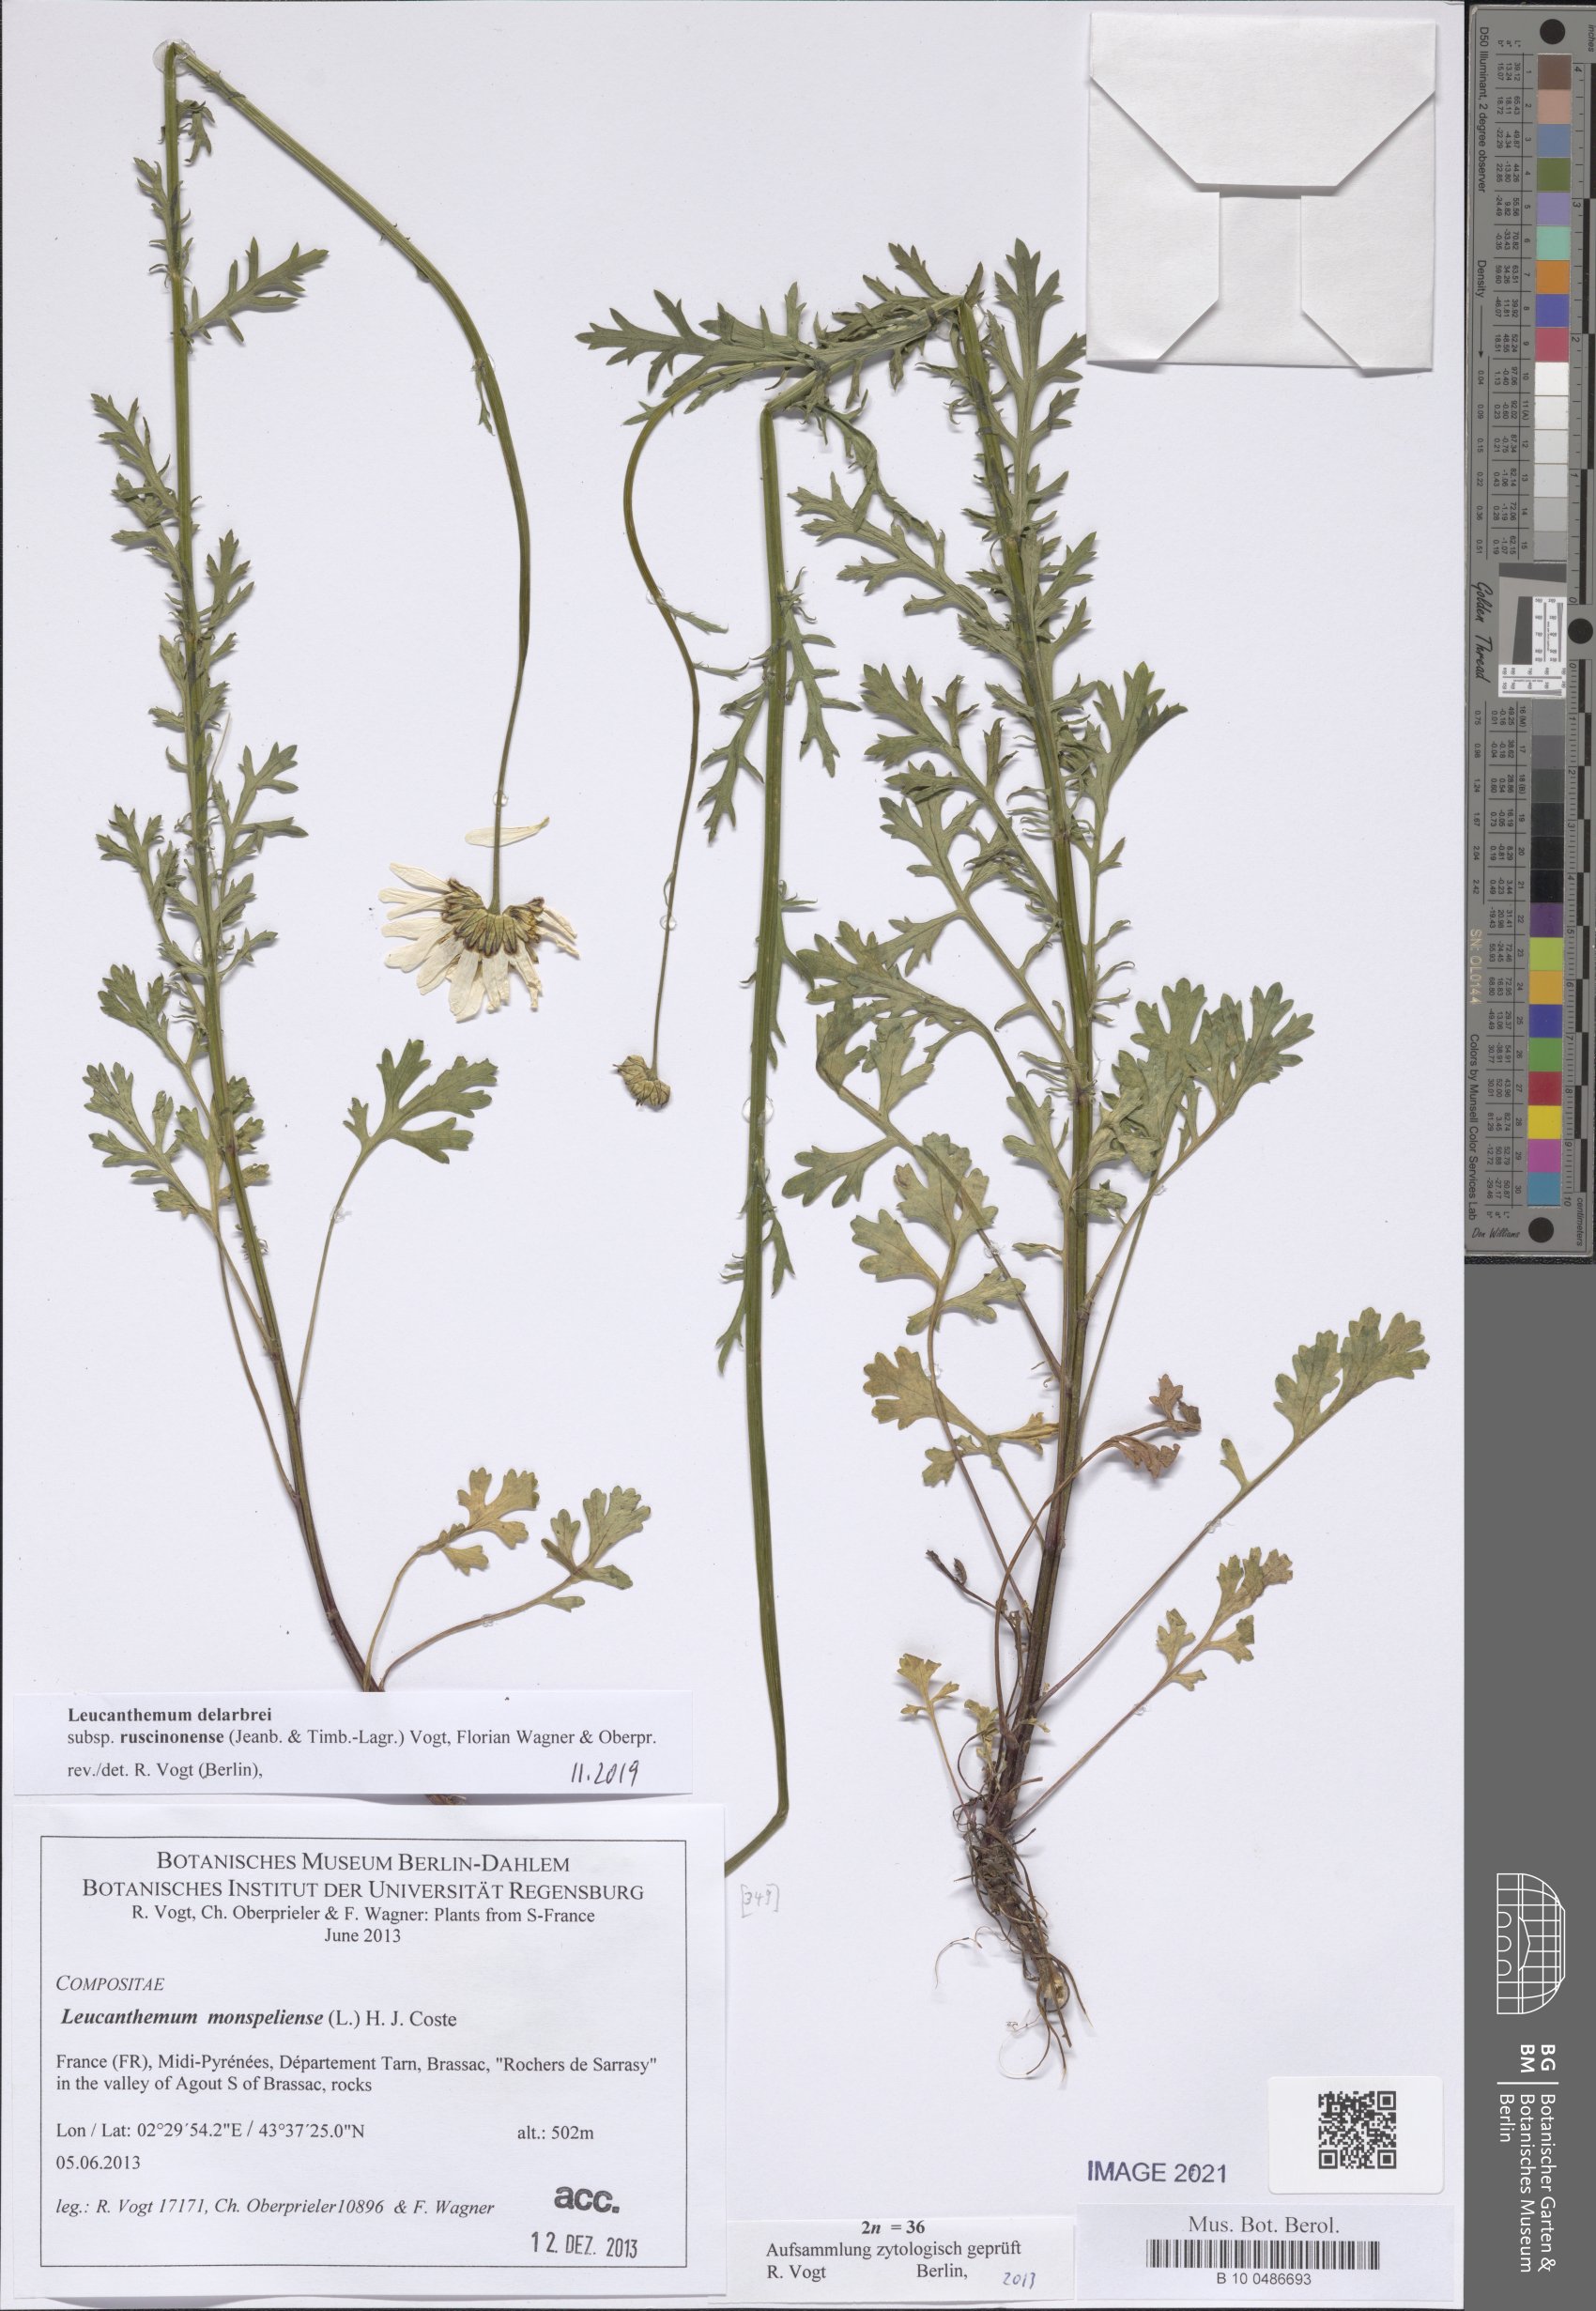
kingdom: Plantae
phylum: Tracheophyta
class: Magnoliopsida
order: Asterales
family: Asteraceae
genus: Leucanthemum
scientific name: Leucanthemum delarbrei
